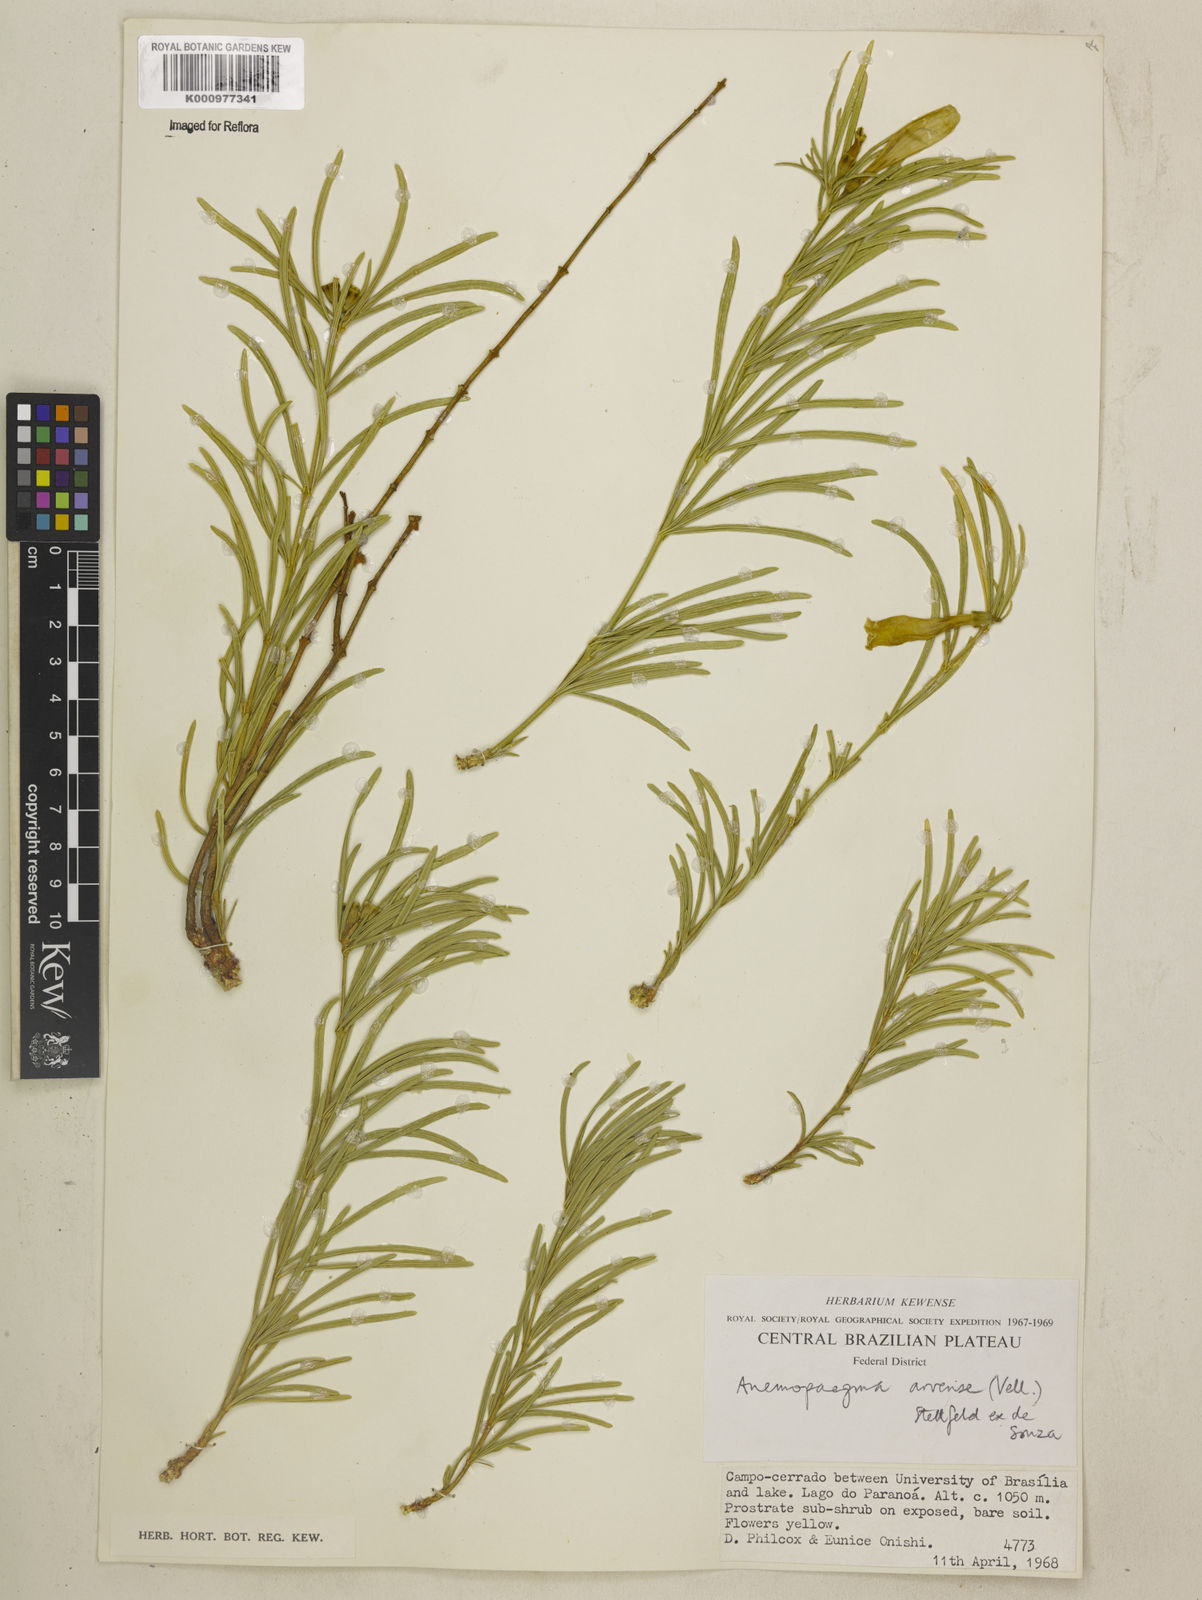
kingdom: Plantae
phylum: Tracheophyta
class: Magnoliopsida
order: Lamiales
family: Bignoniaceae
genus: Anemopaegma
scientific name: Anemopaegma arvense
